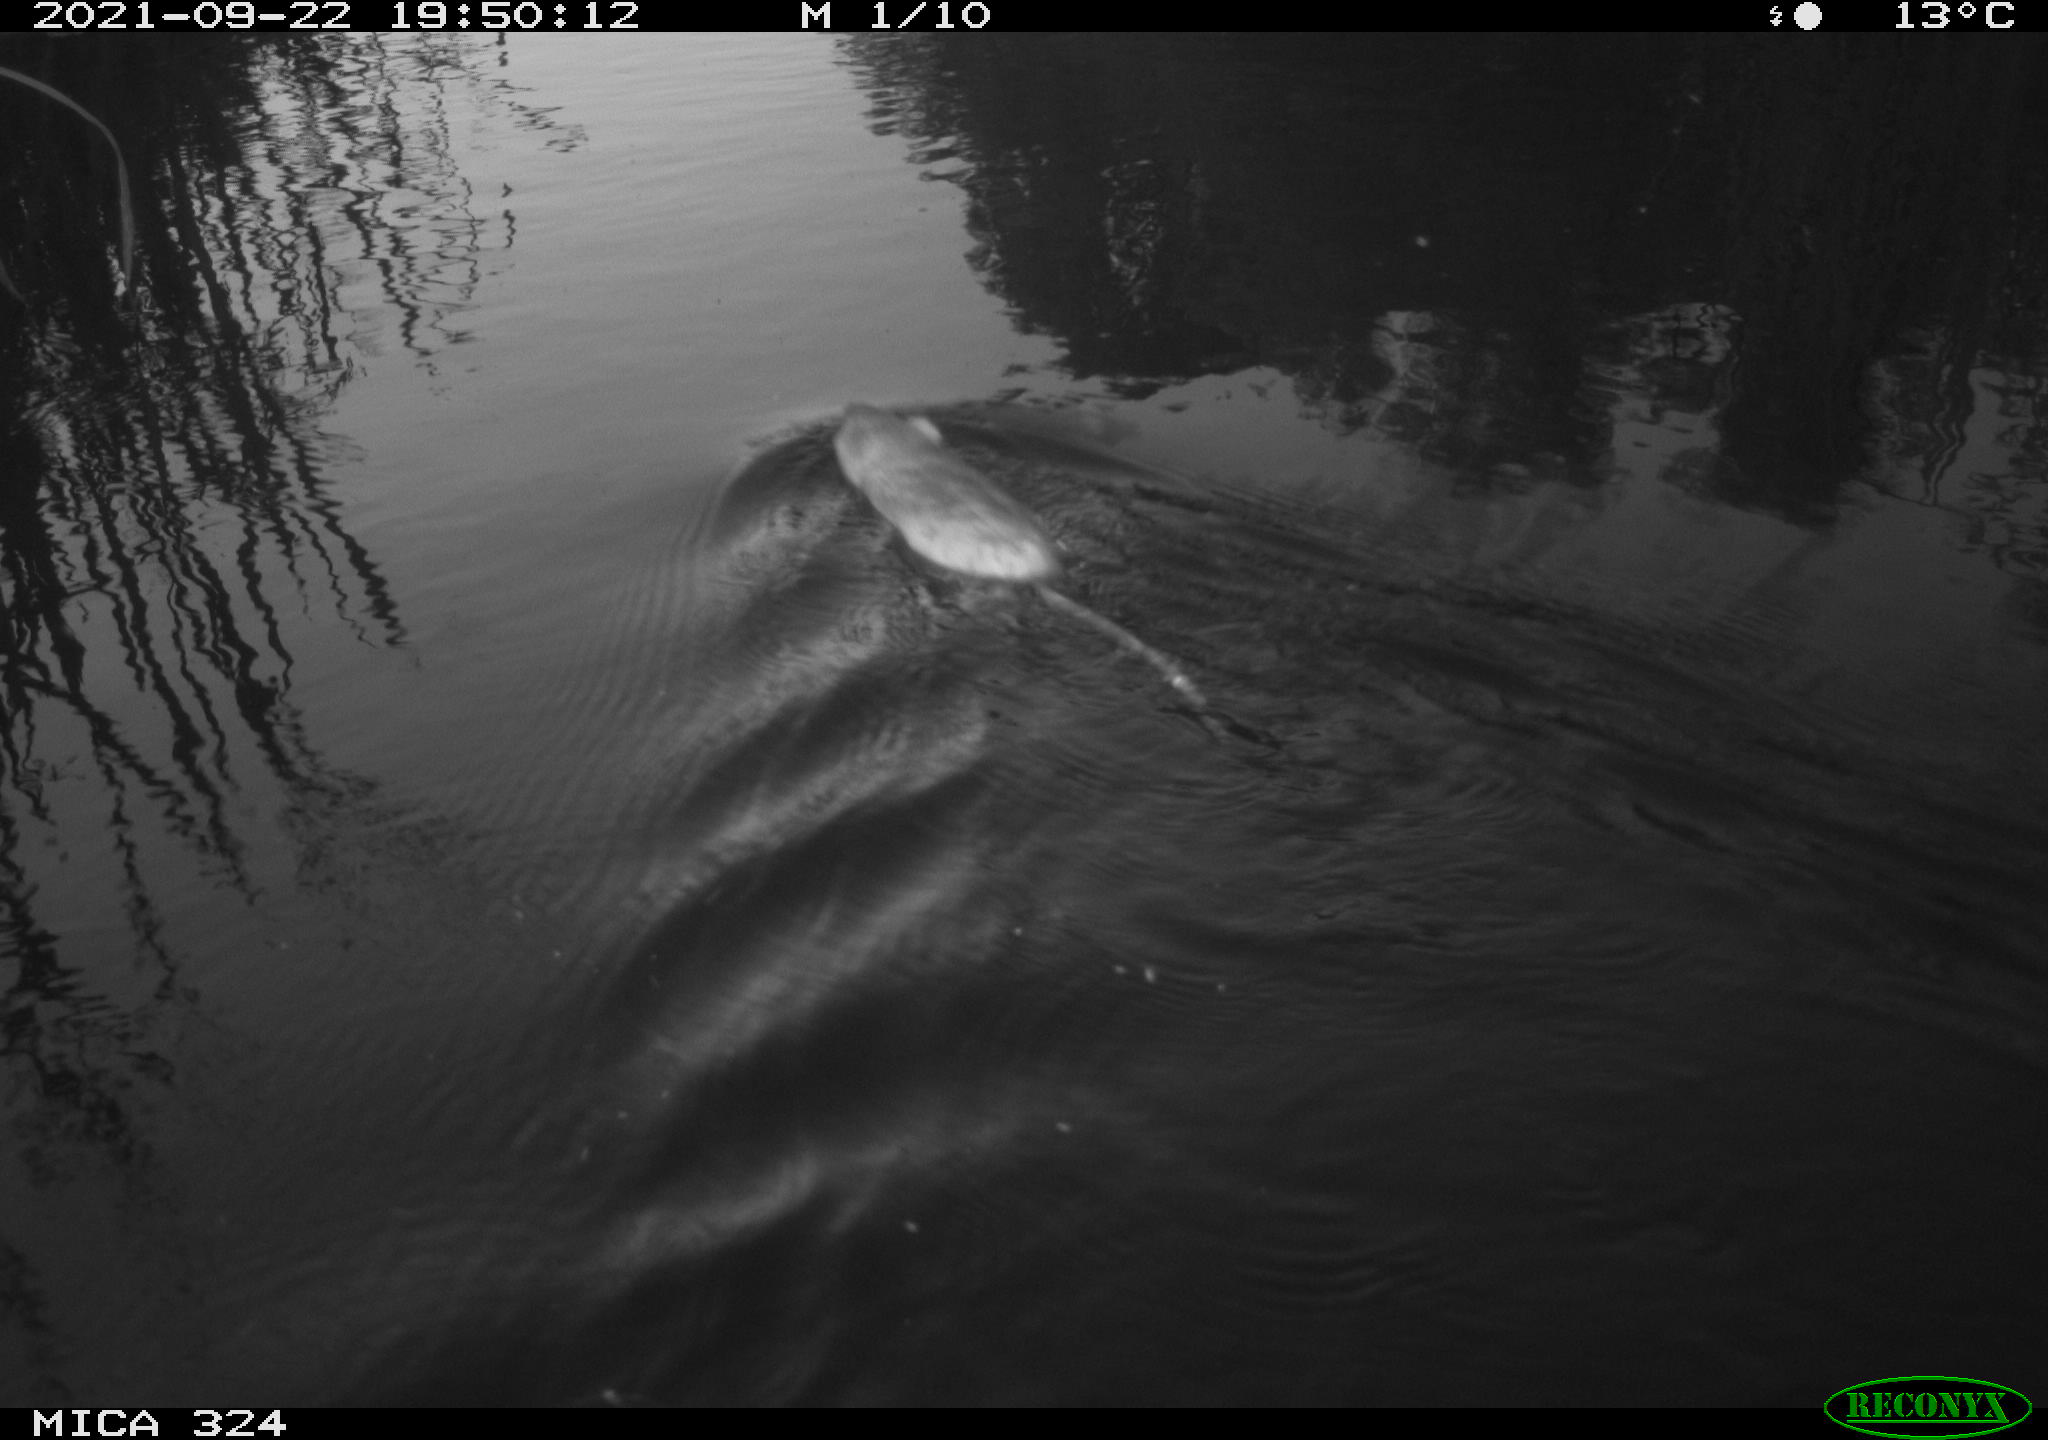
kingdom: Animalia
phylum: Chordata
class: Mammalia
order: Rodentia
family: Cricetidae
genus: Ondatra
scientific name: Ondatra zibethicus
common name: Muskrat
